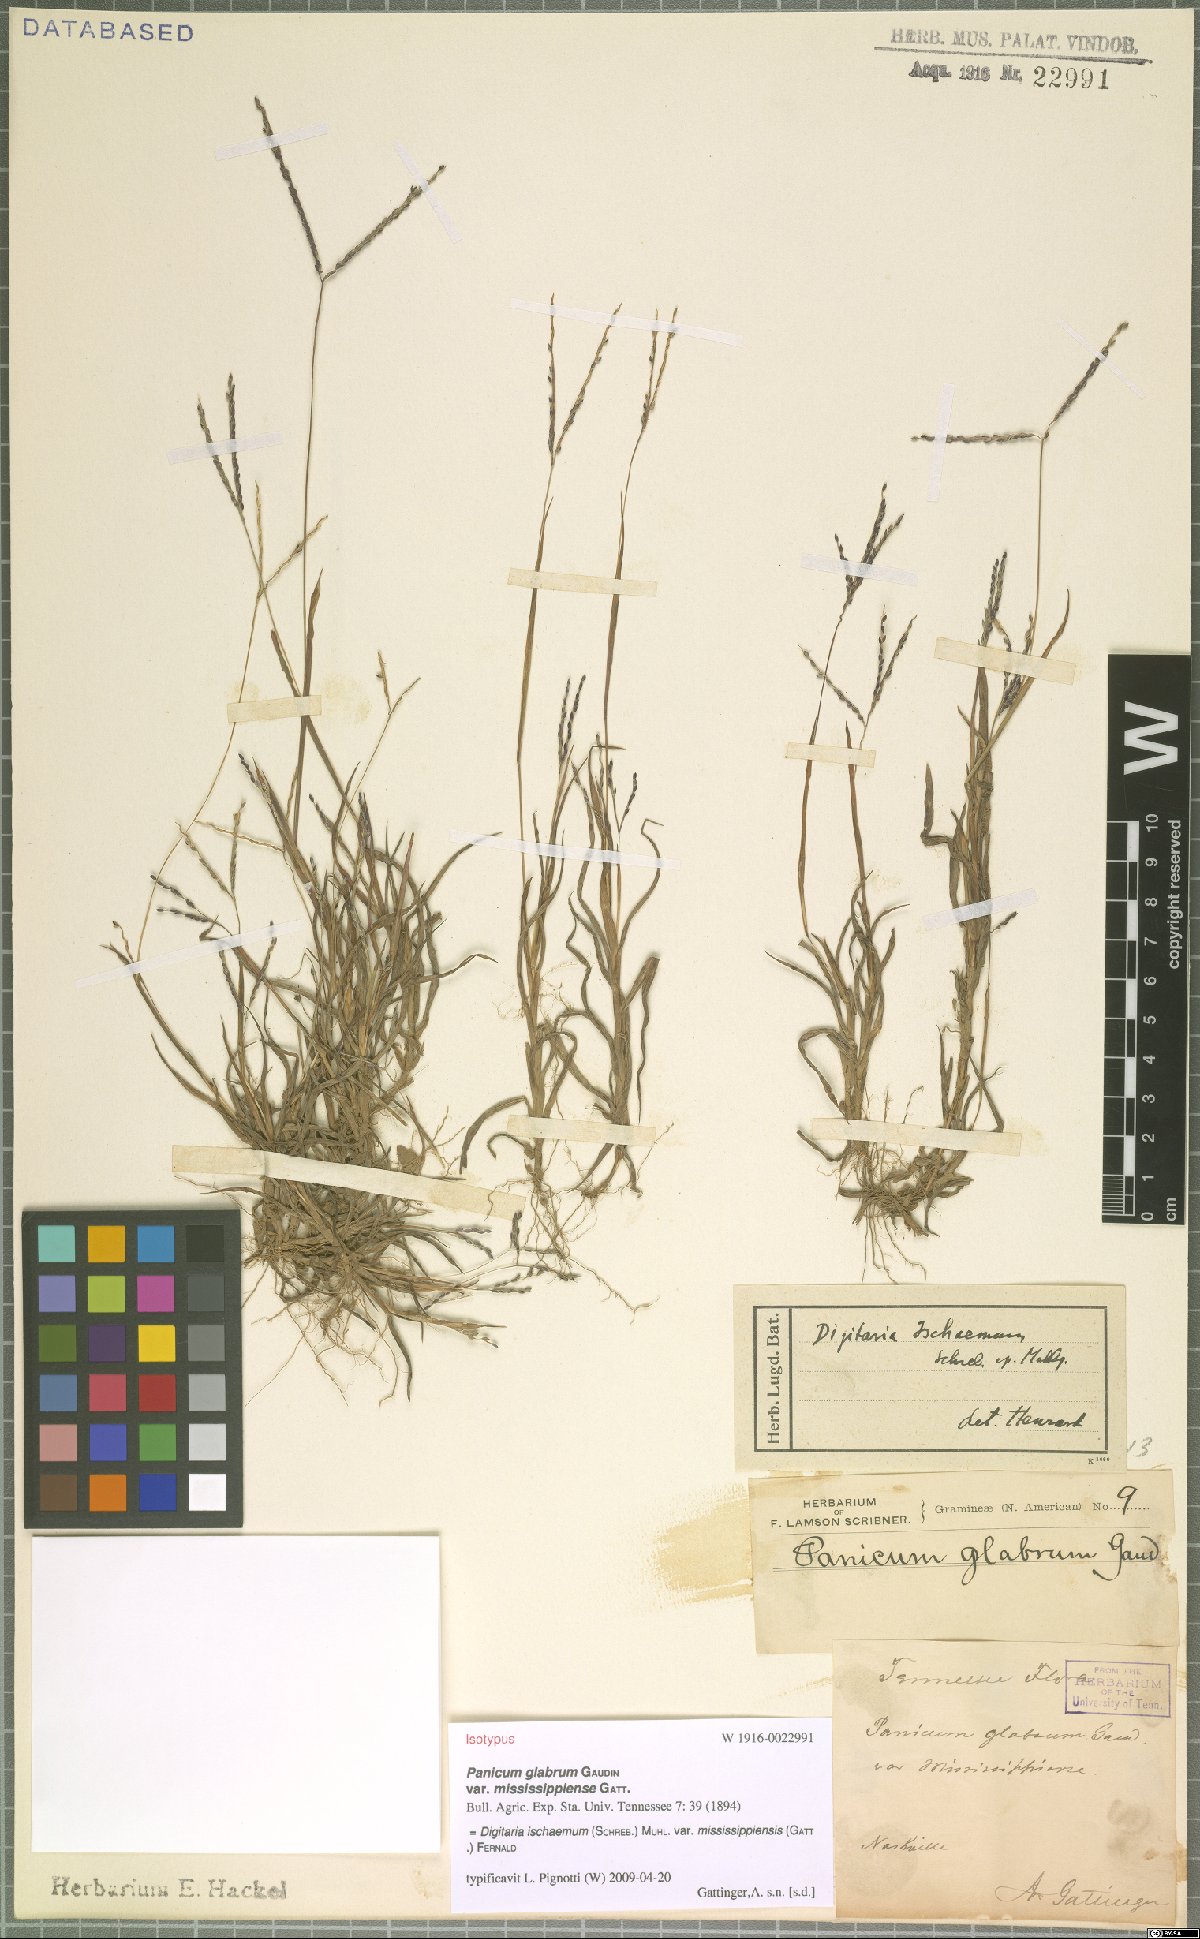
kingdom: Plantae
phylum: Tracheophyta
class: Liliopsida
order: Poales
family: Poaceae
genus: Digitaria
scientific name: Digitaria ischaemum
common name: Smooth crabgrass
